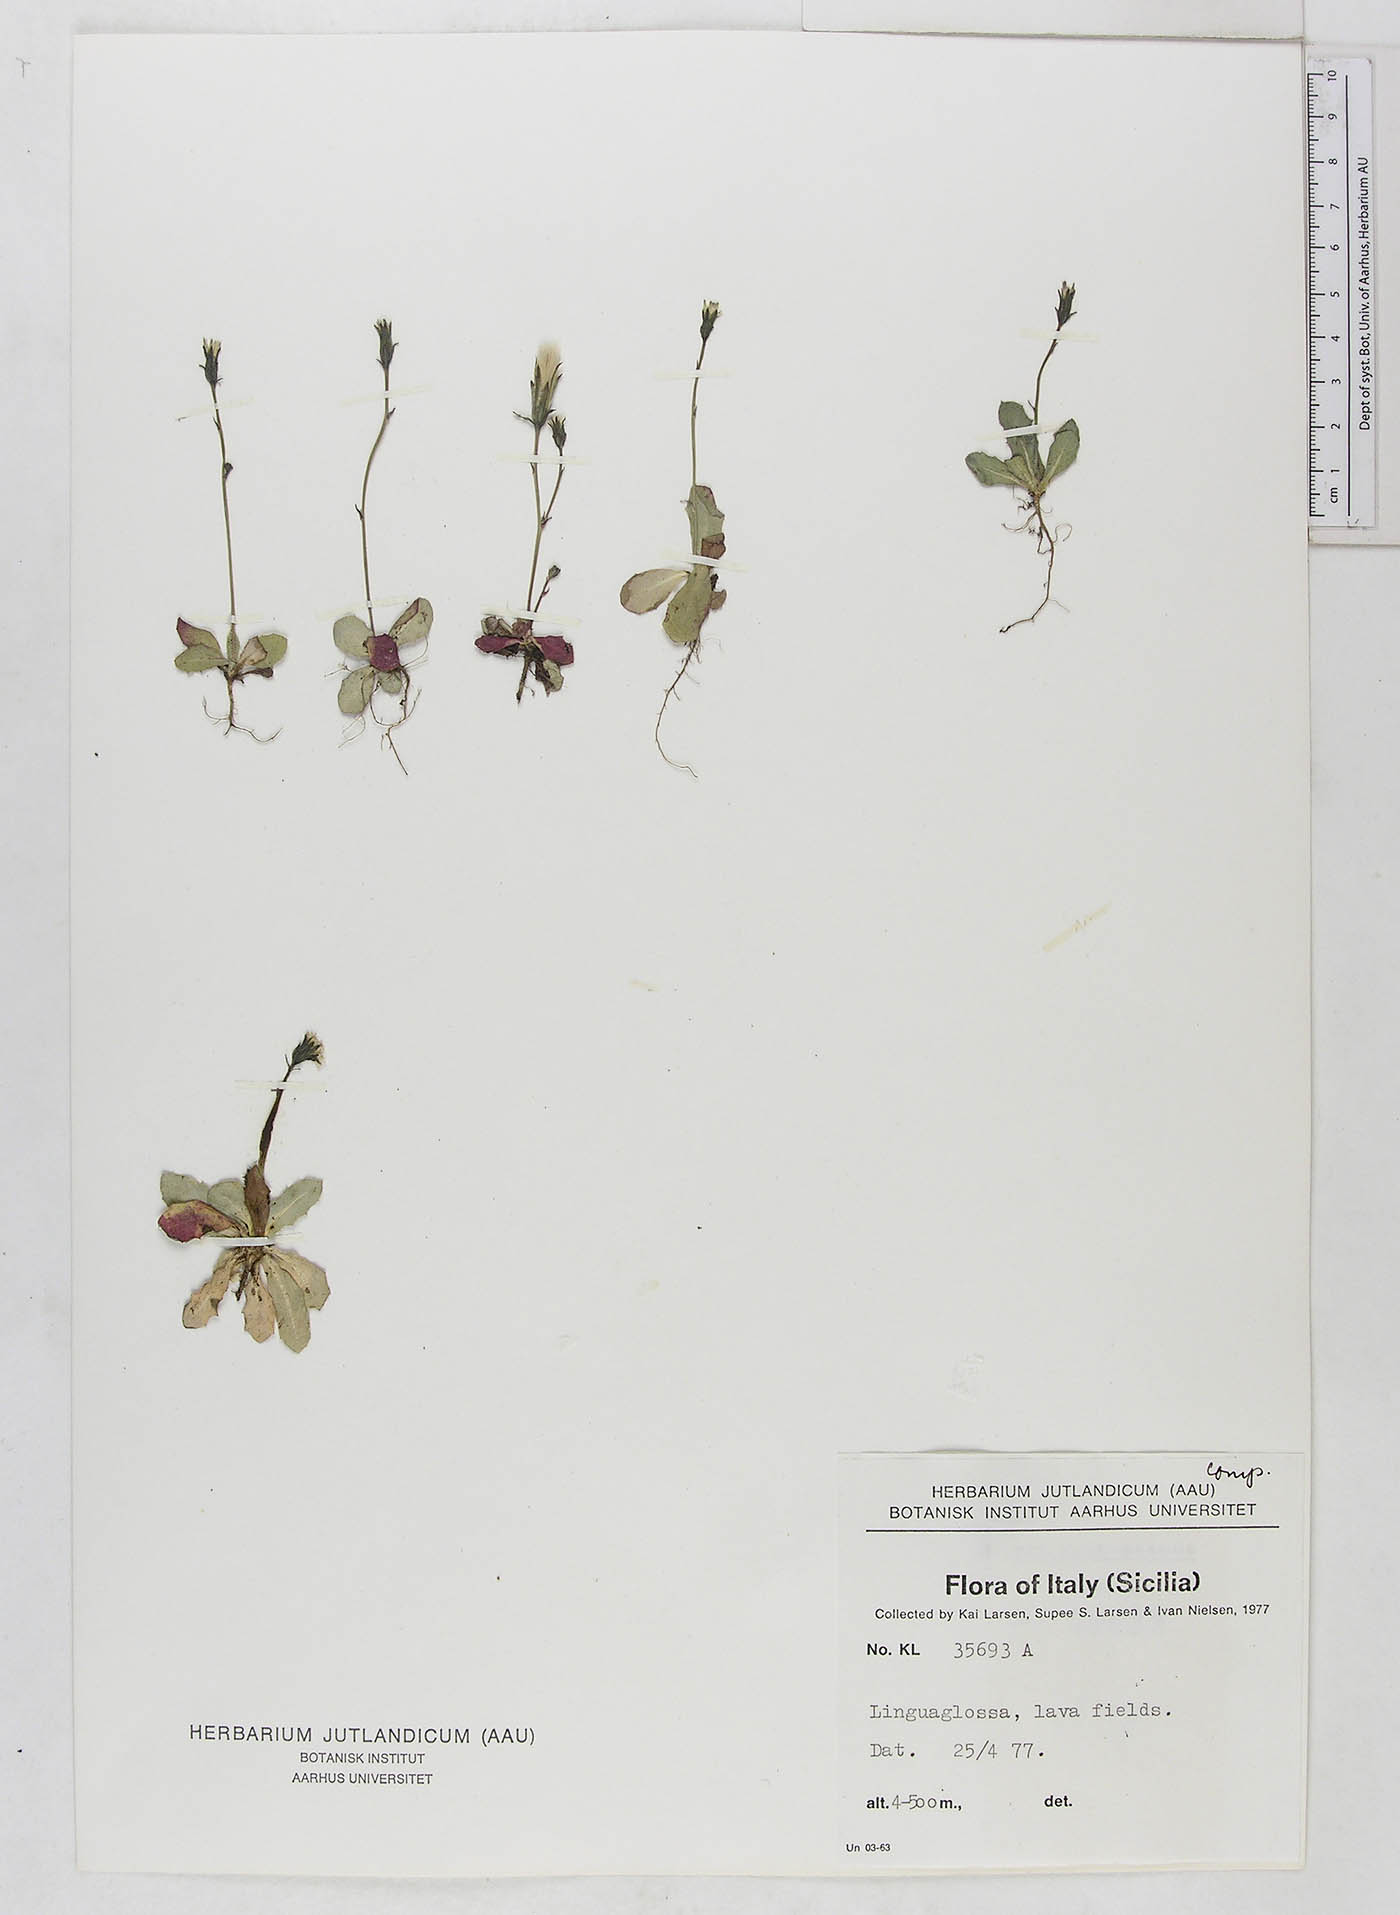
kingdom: Plantae
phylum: Tracheophyta
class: Magnoliopsida
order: Asterales
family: Asteraceae
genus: Hypochaeris
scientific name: Hypochaeris
